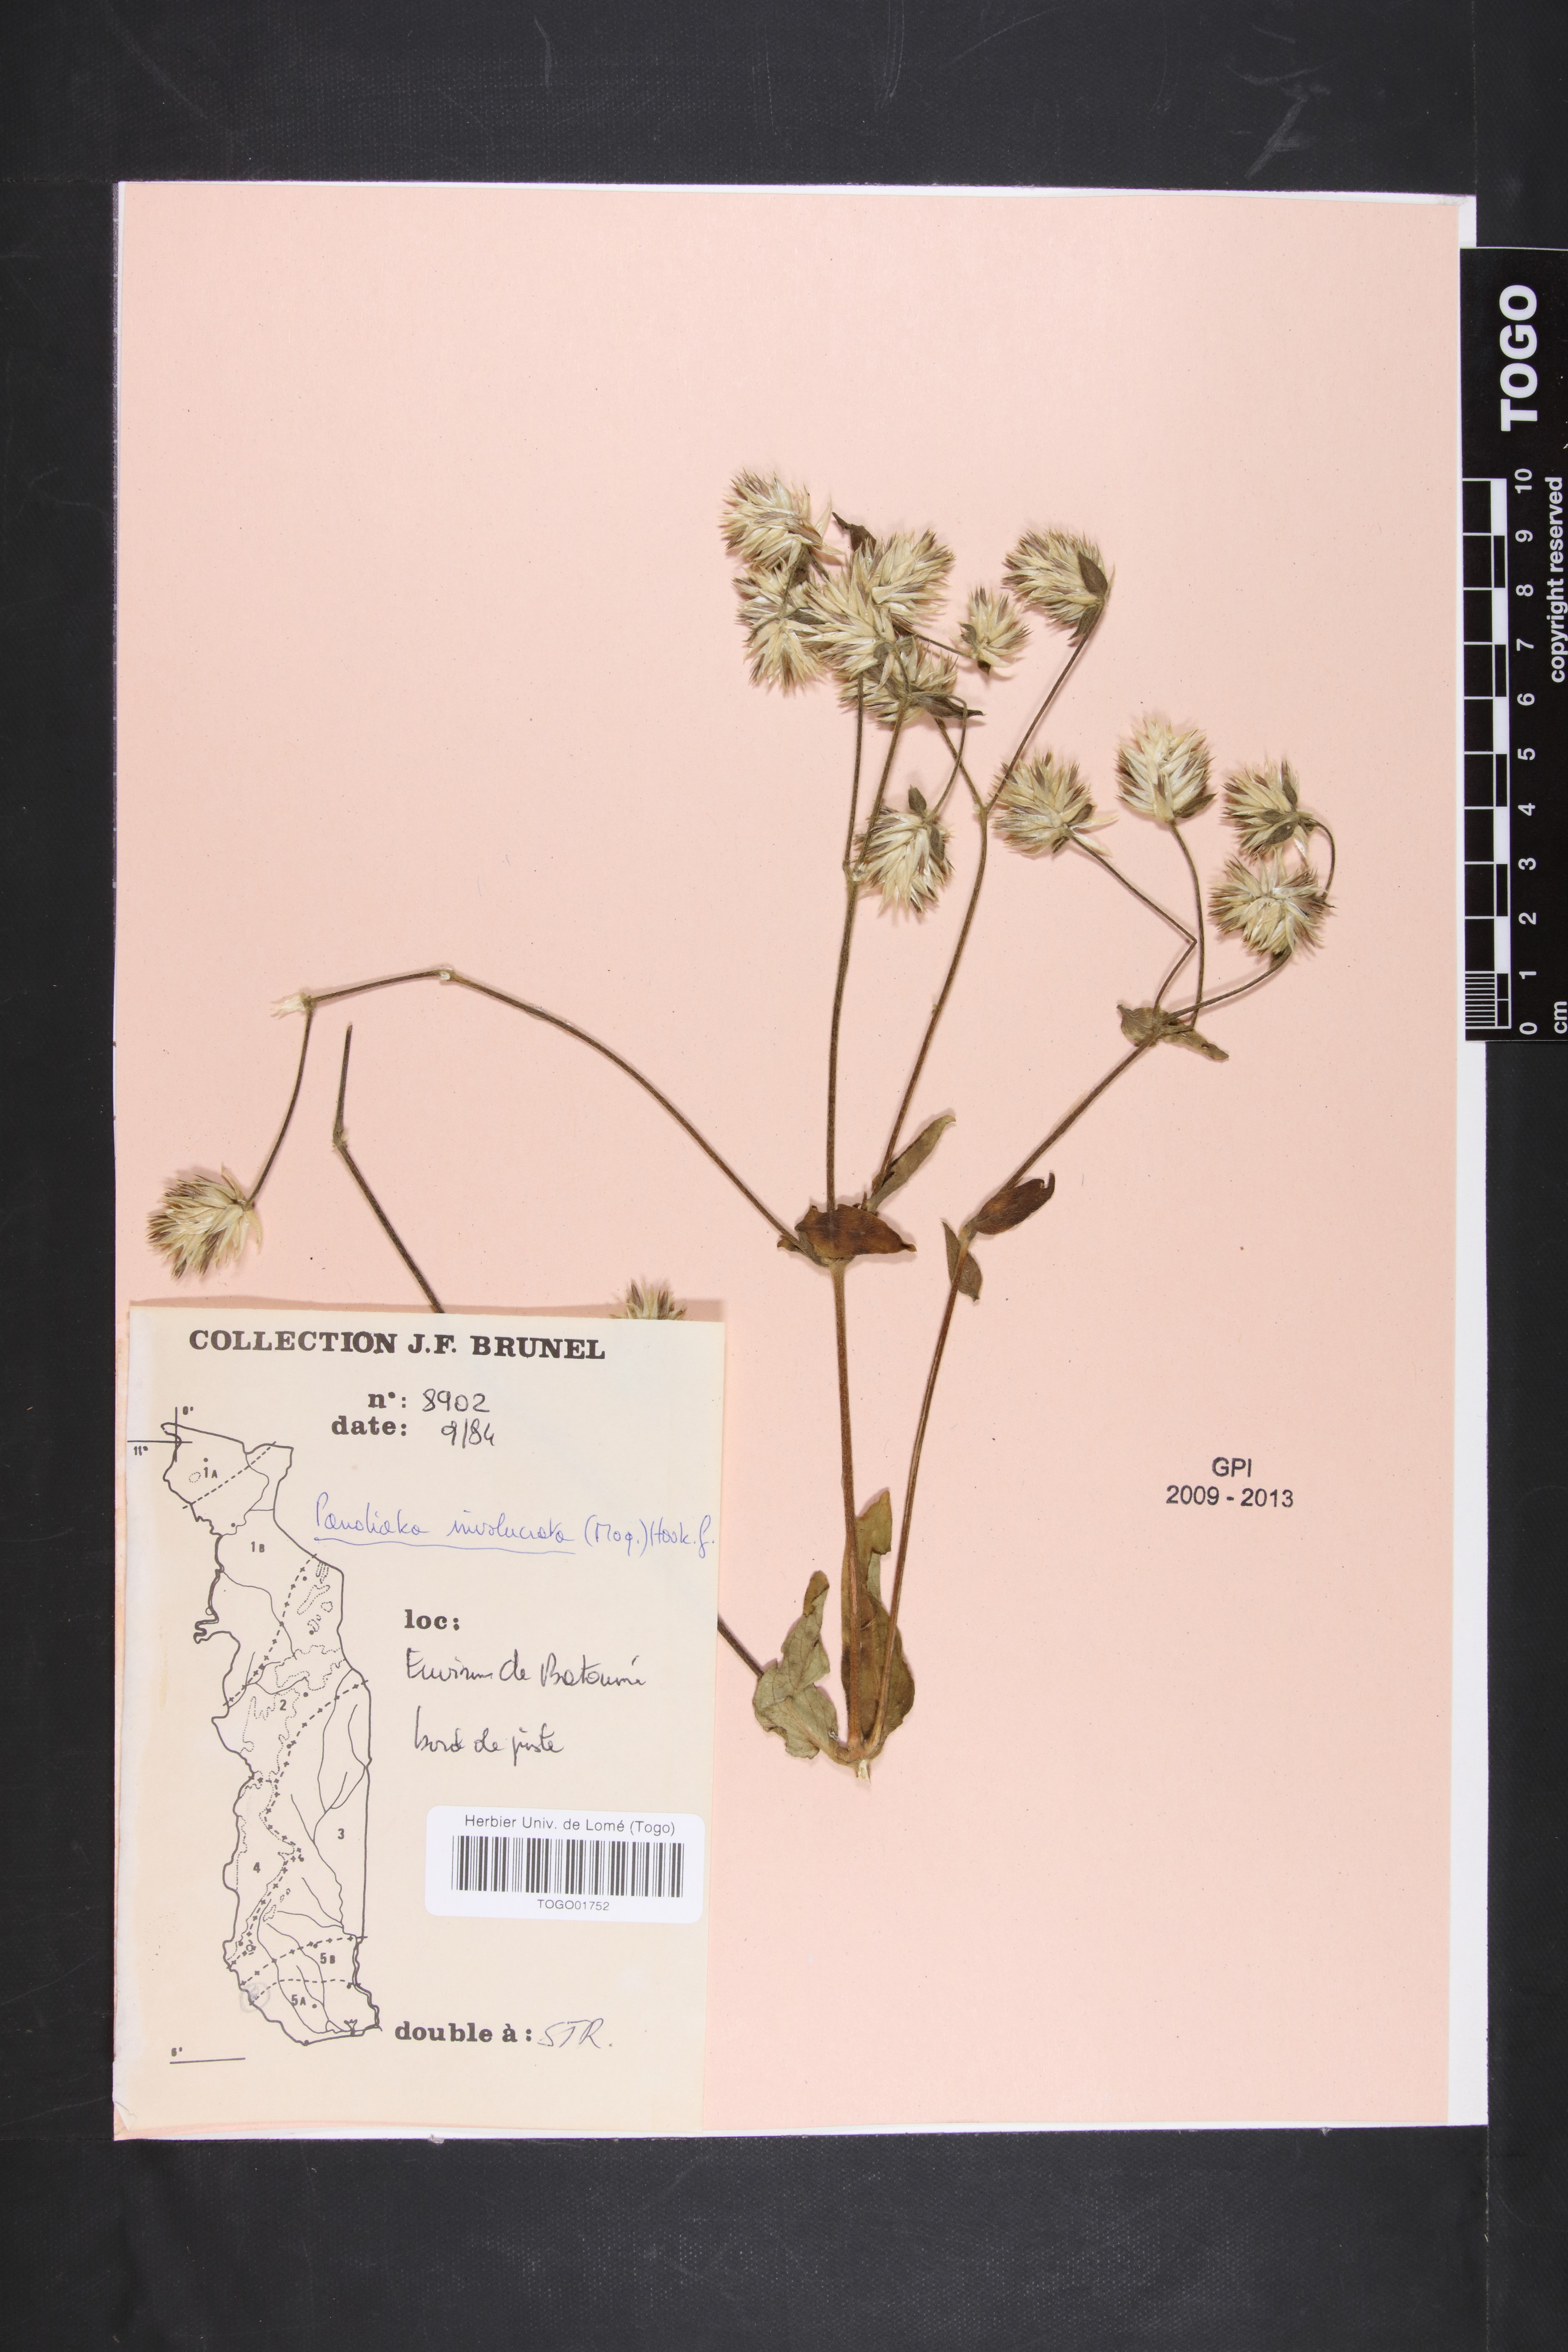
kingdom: Plantae
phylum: Tracheophyta
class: Magnoliopsida
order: Caryophyllales
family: Amaranthaceae
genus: Pandiaka
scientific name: Pandiaka involucrata
